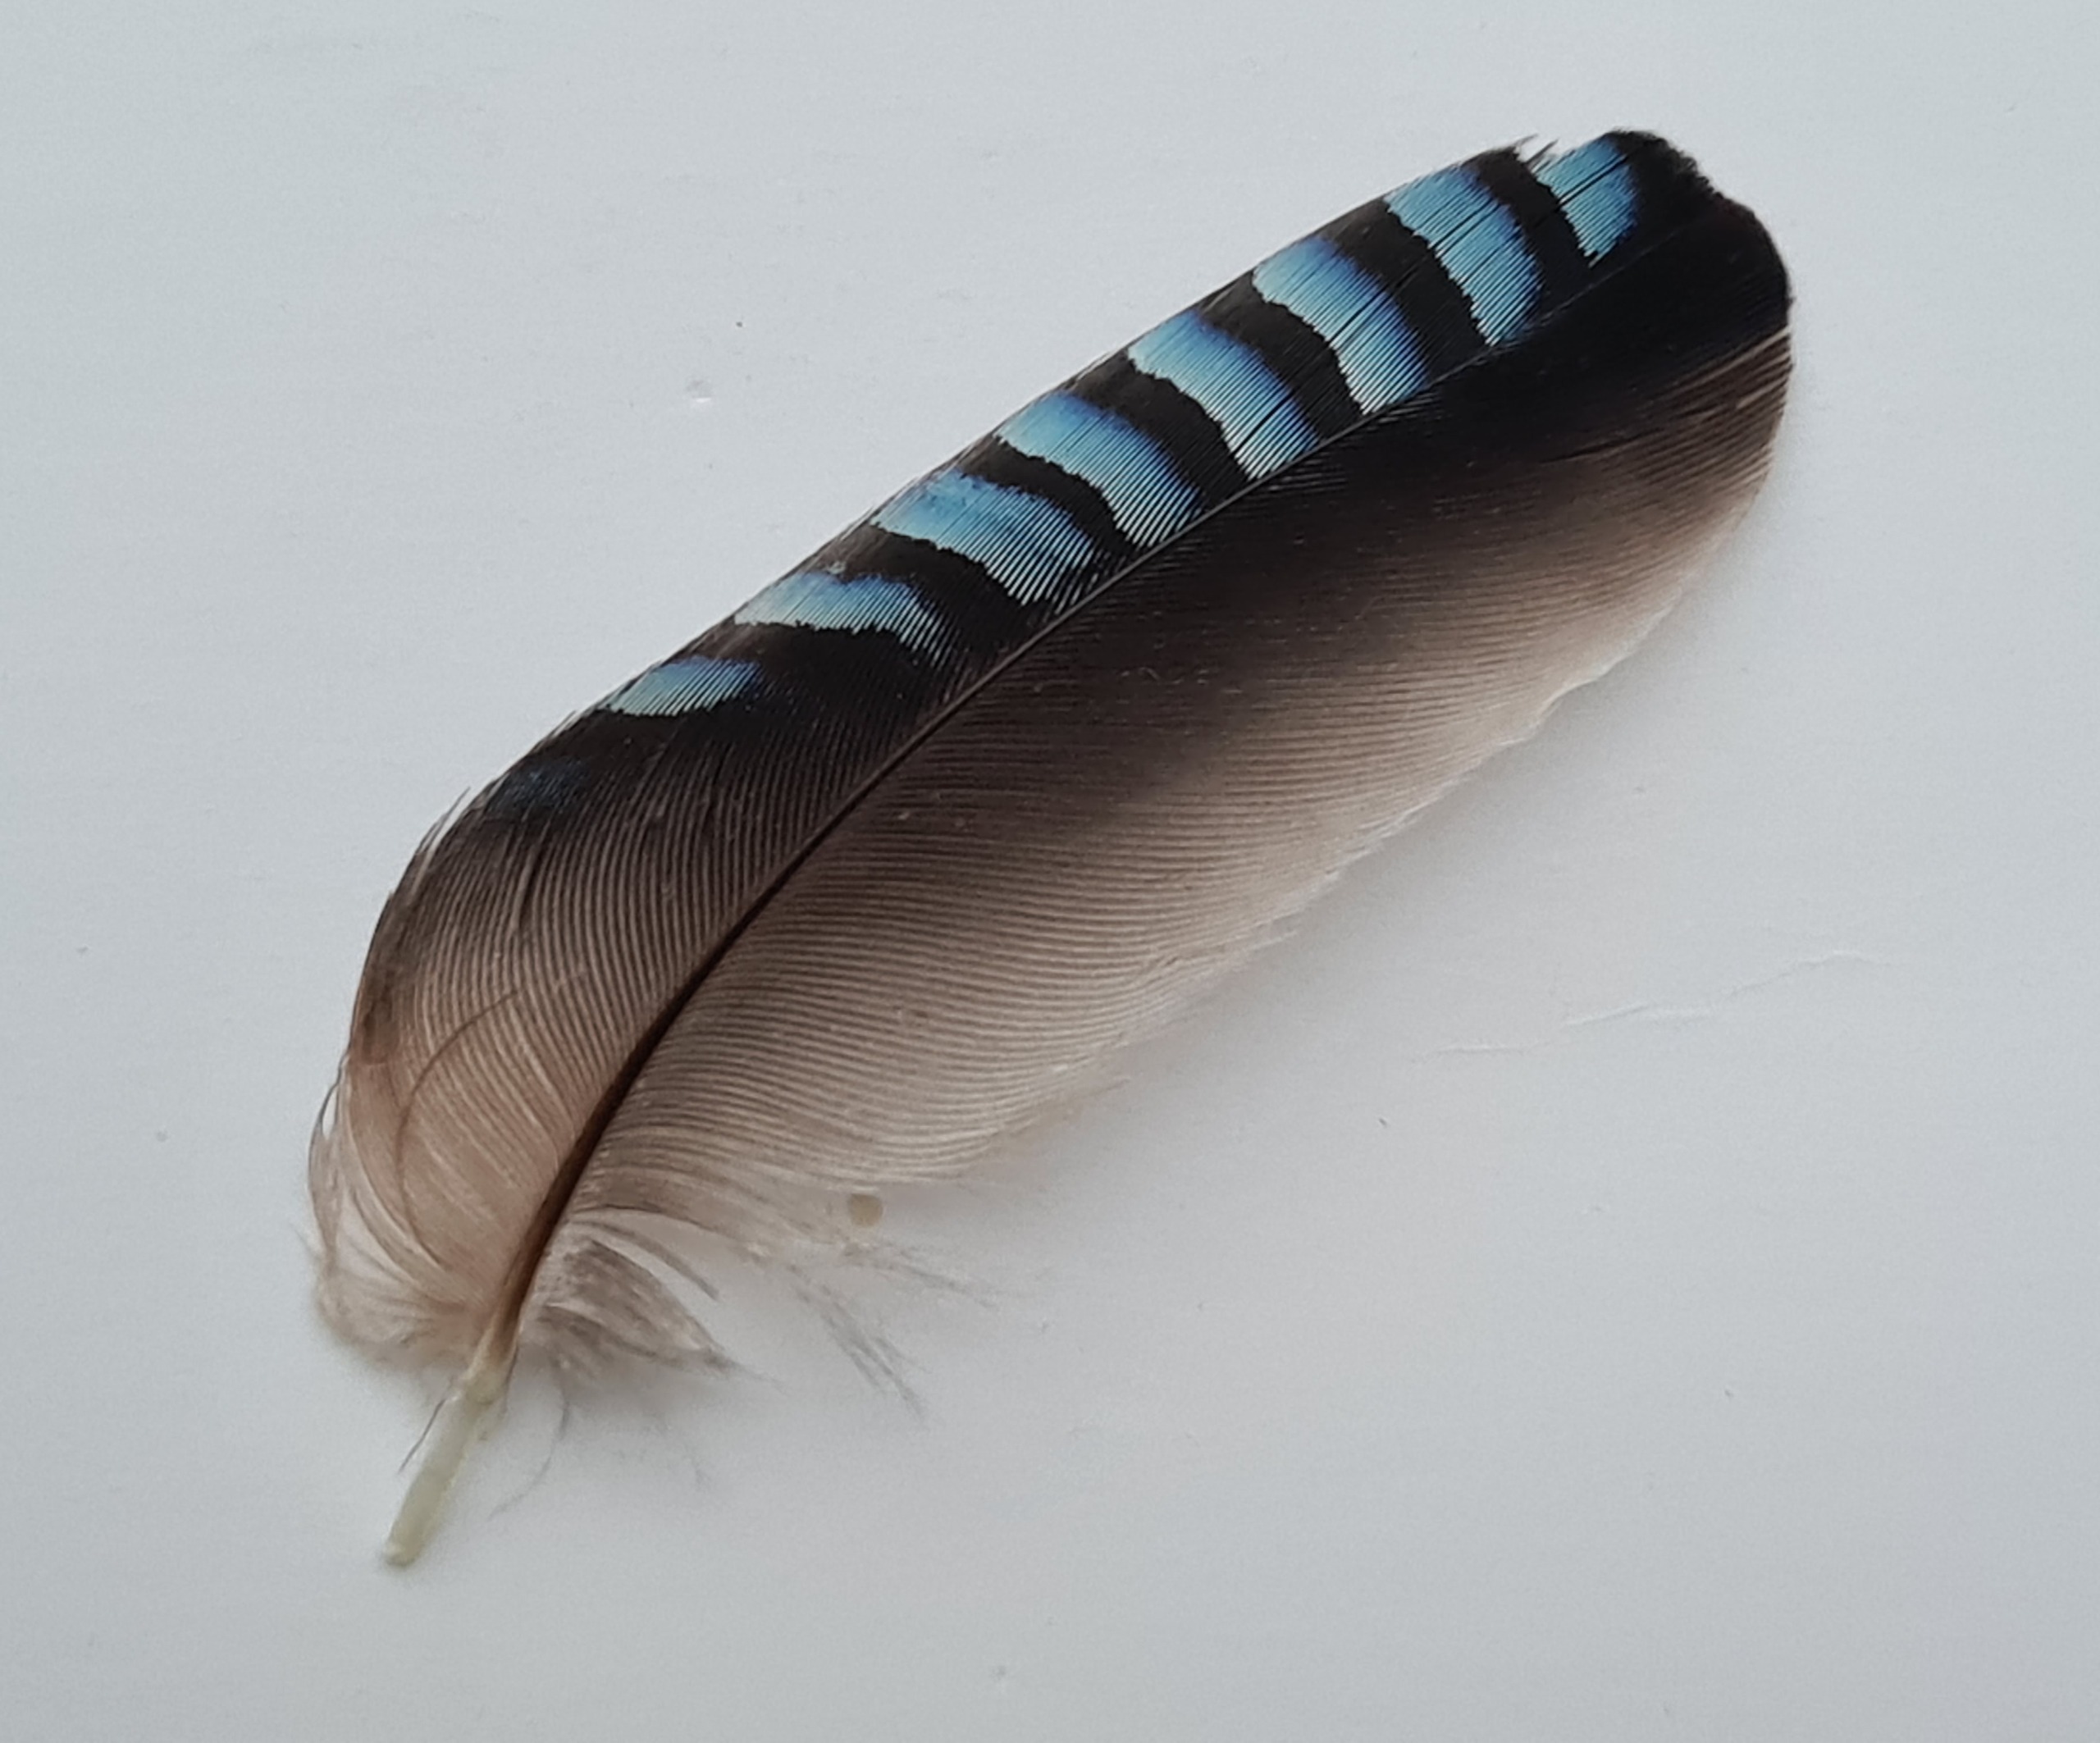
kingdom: Animalia
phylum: Chordata
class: Aves
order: Passeriformes
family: Corvidae
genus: Garrulus
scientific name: Garrulus glandarius
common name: Skovskade
